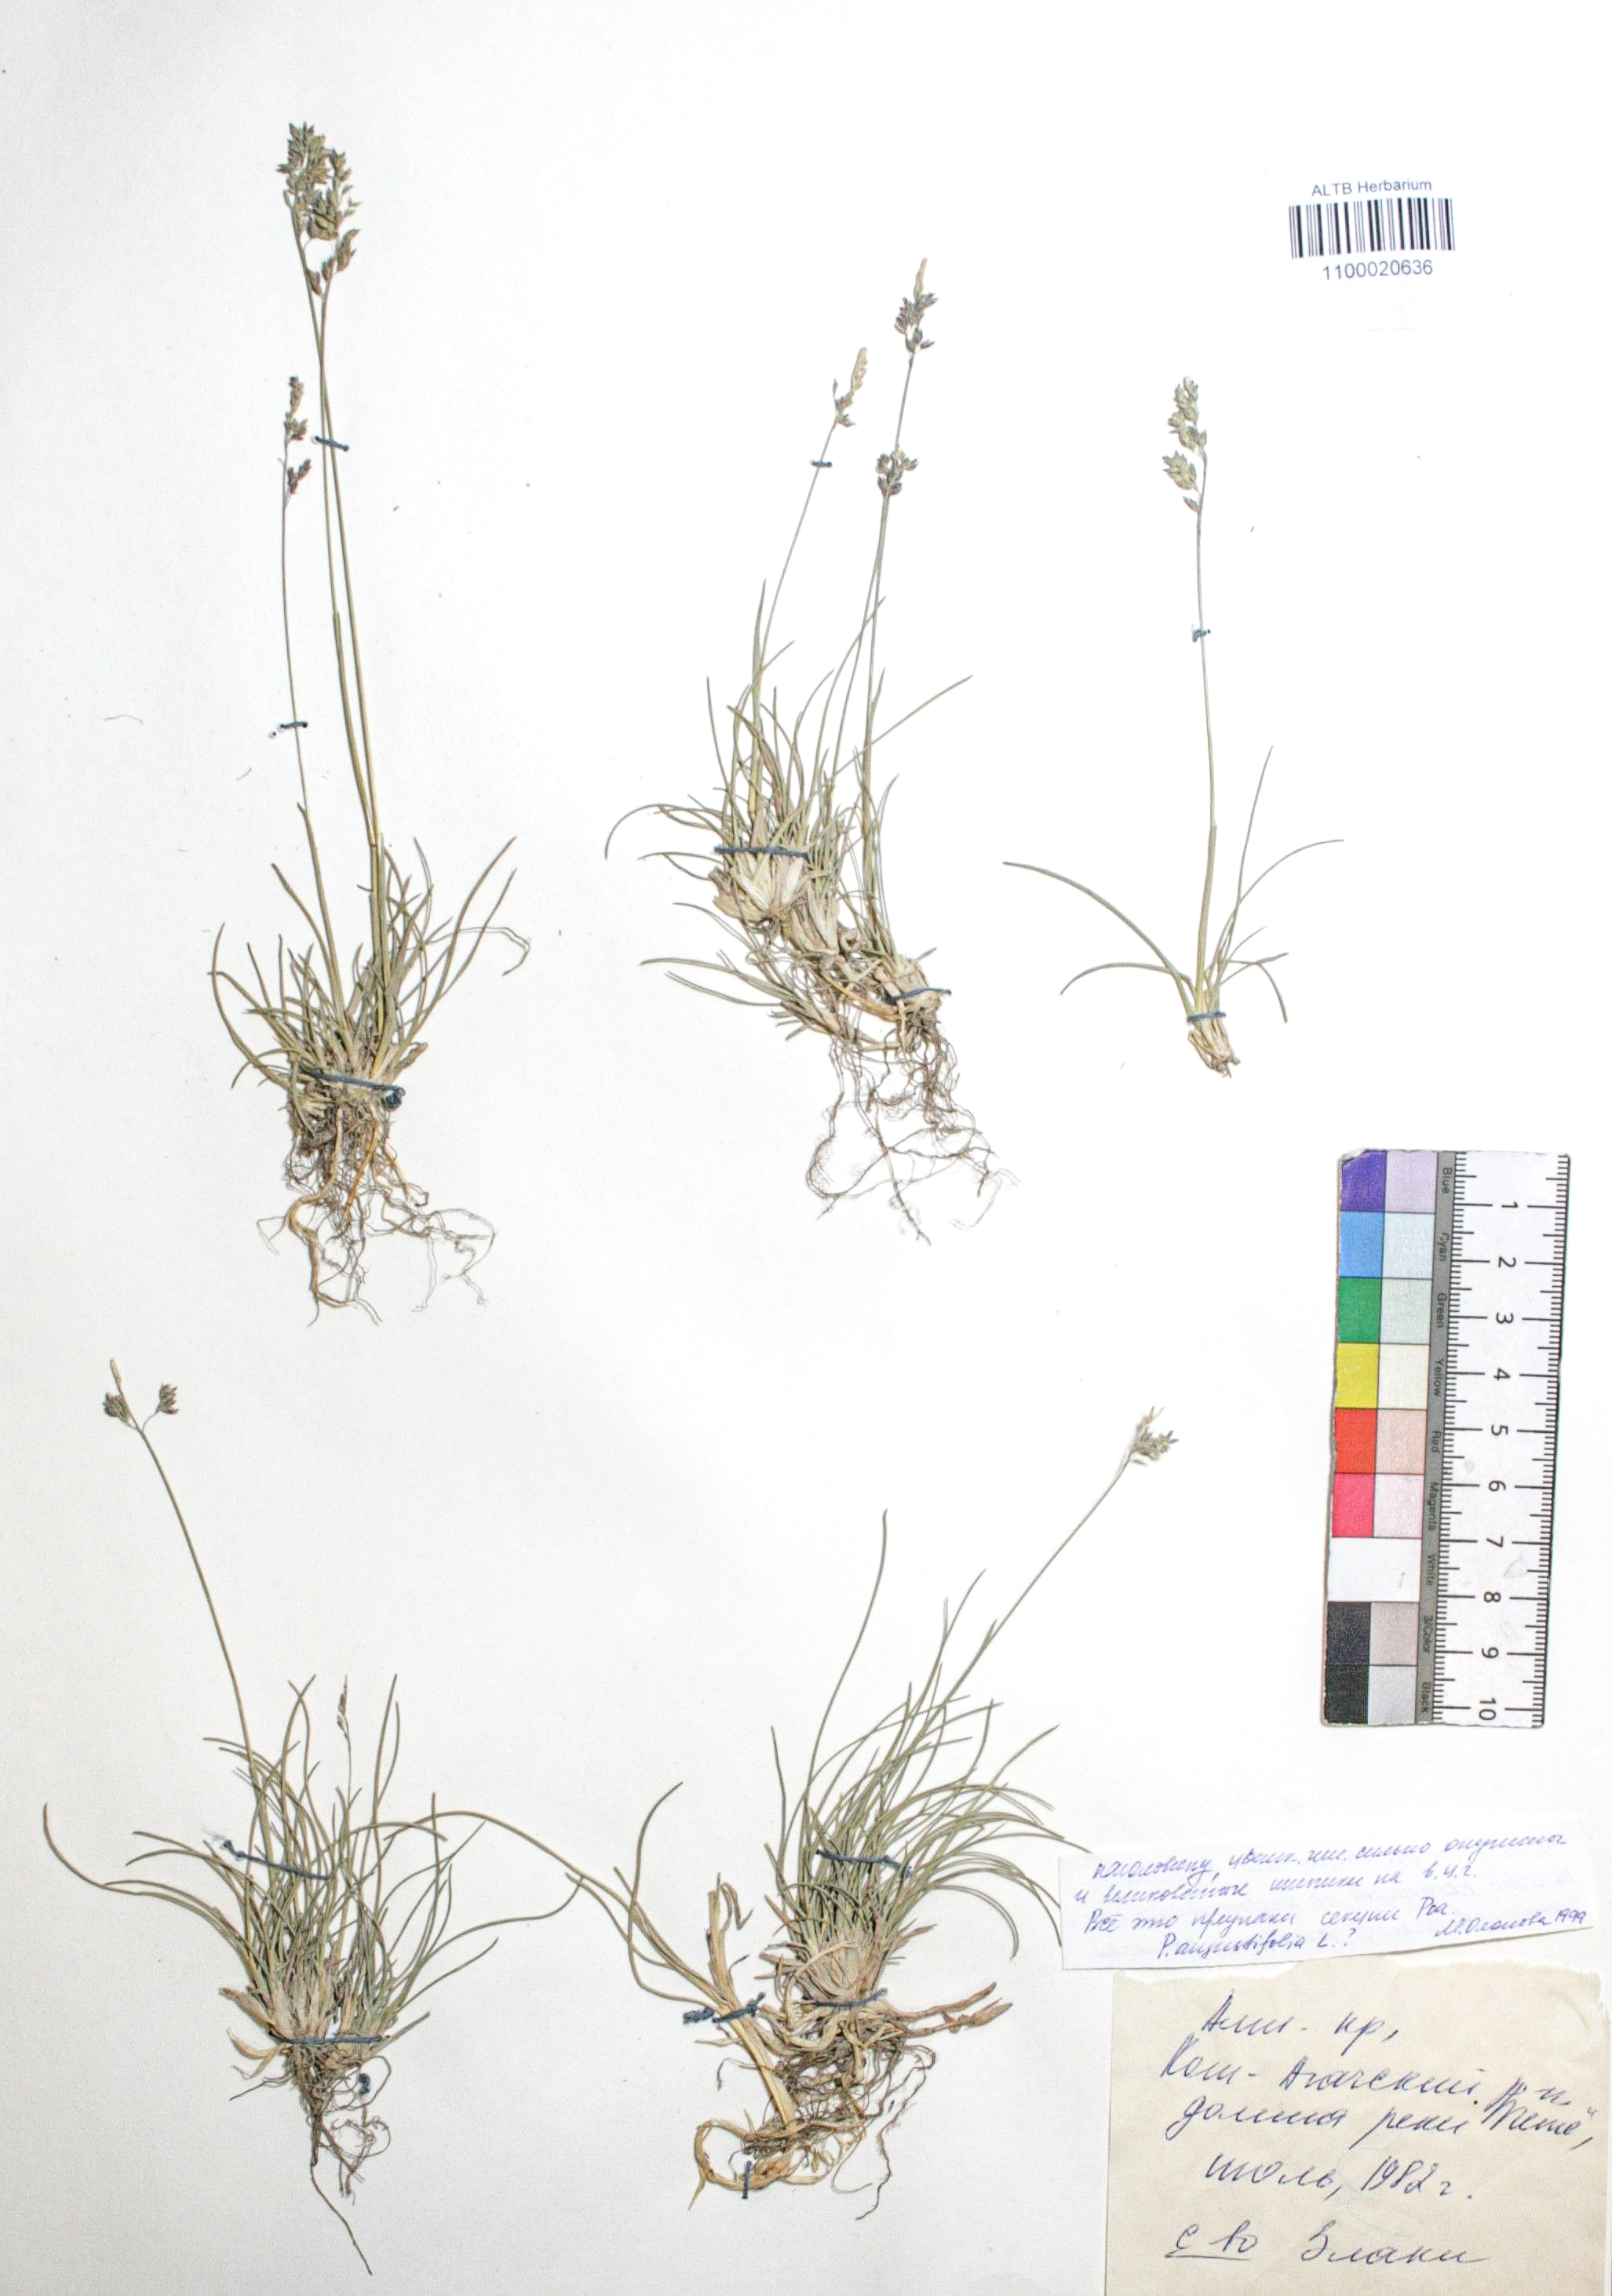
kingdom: Plantae
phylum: Tracheophyta
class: Liliopsida
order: Poales
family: Poaceae
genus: Poa
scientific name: Poa angustifolia
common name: Narrow-leaved meadow-grass
